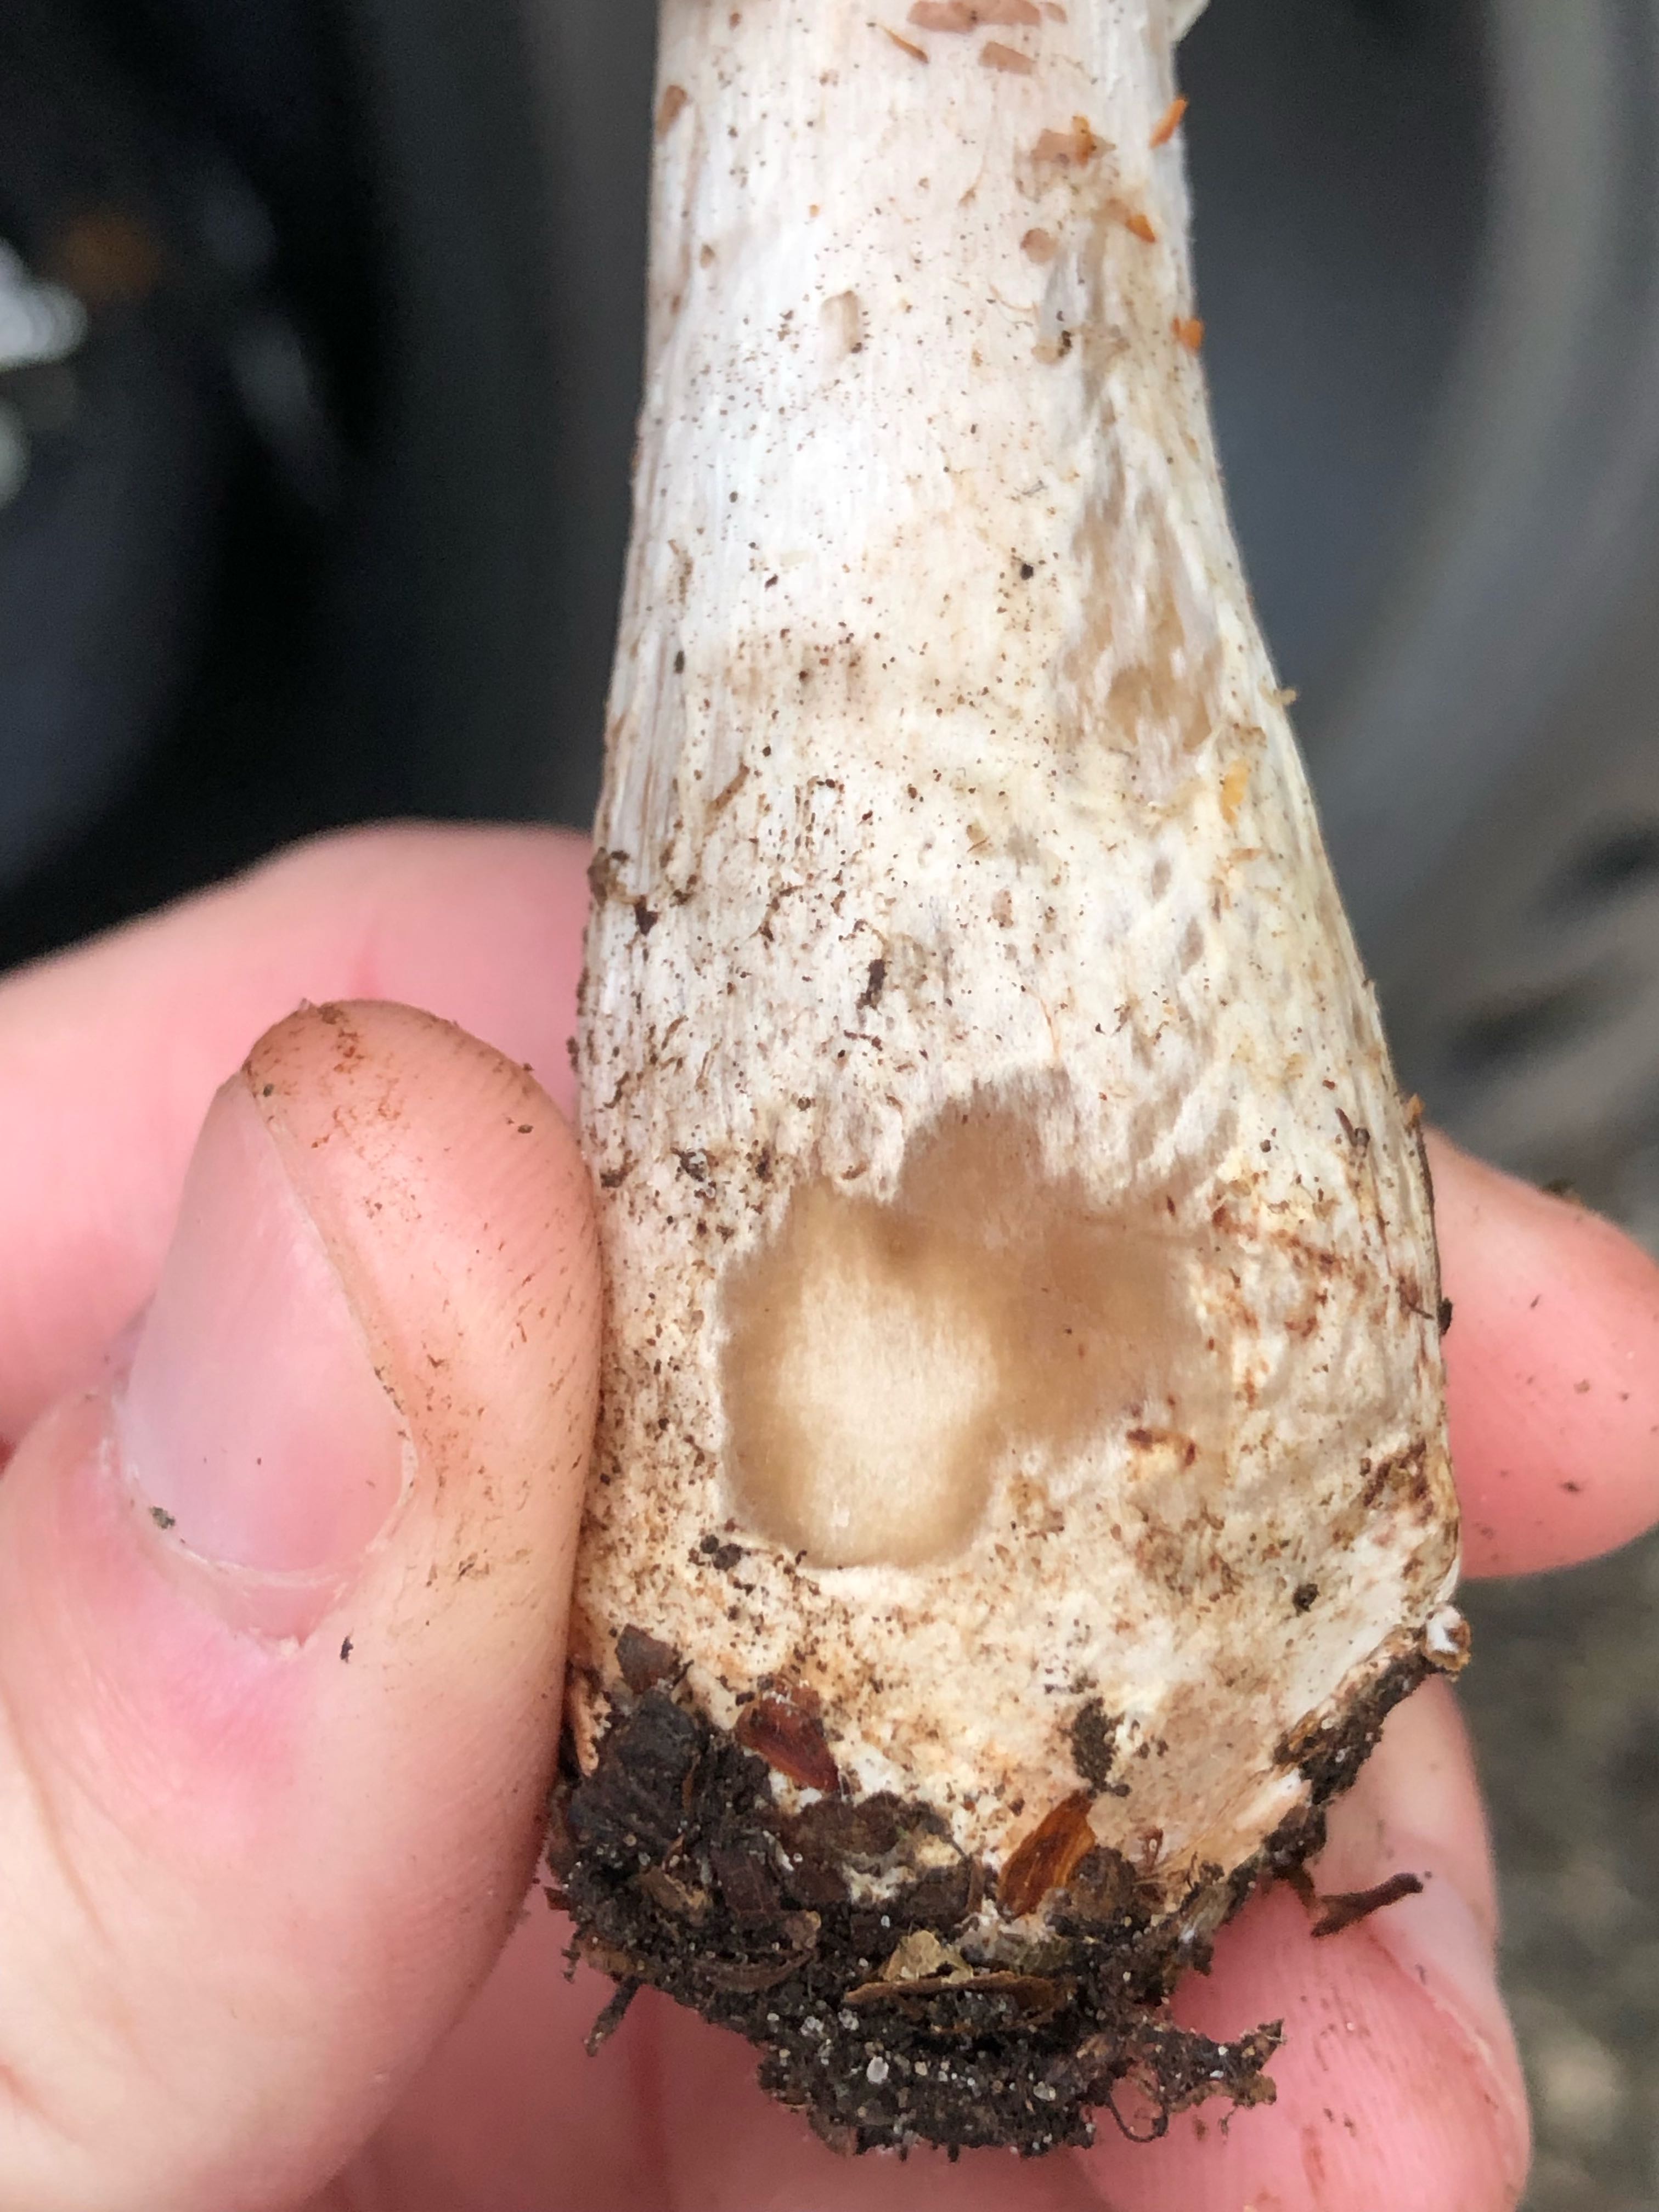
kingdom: Fungi
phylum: Basidiomycota
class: Agaricomycetes
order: Agaricales
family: Agaricaceae
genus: Agaricus
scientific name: Agaricus impudicus
